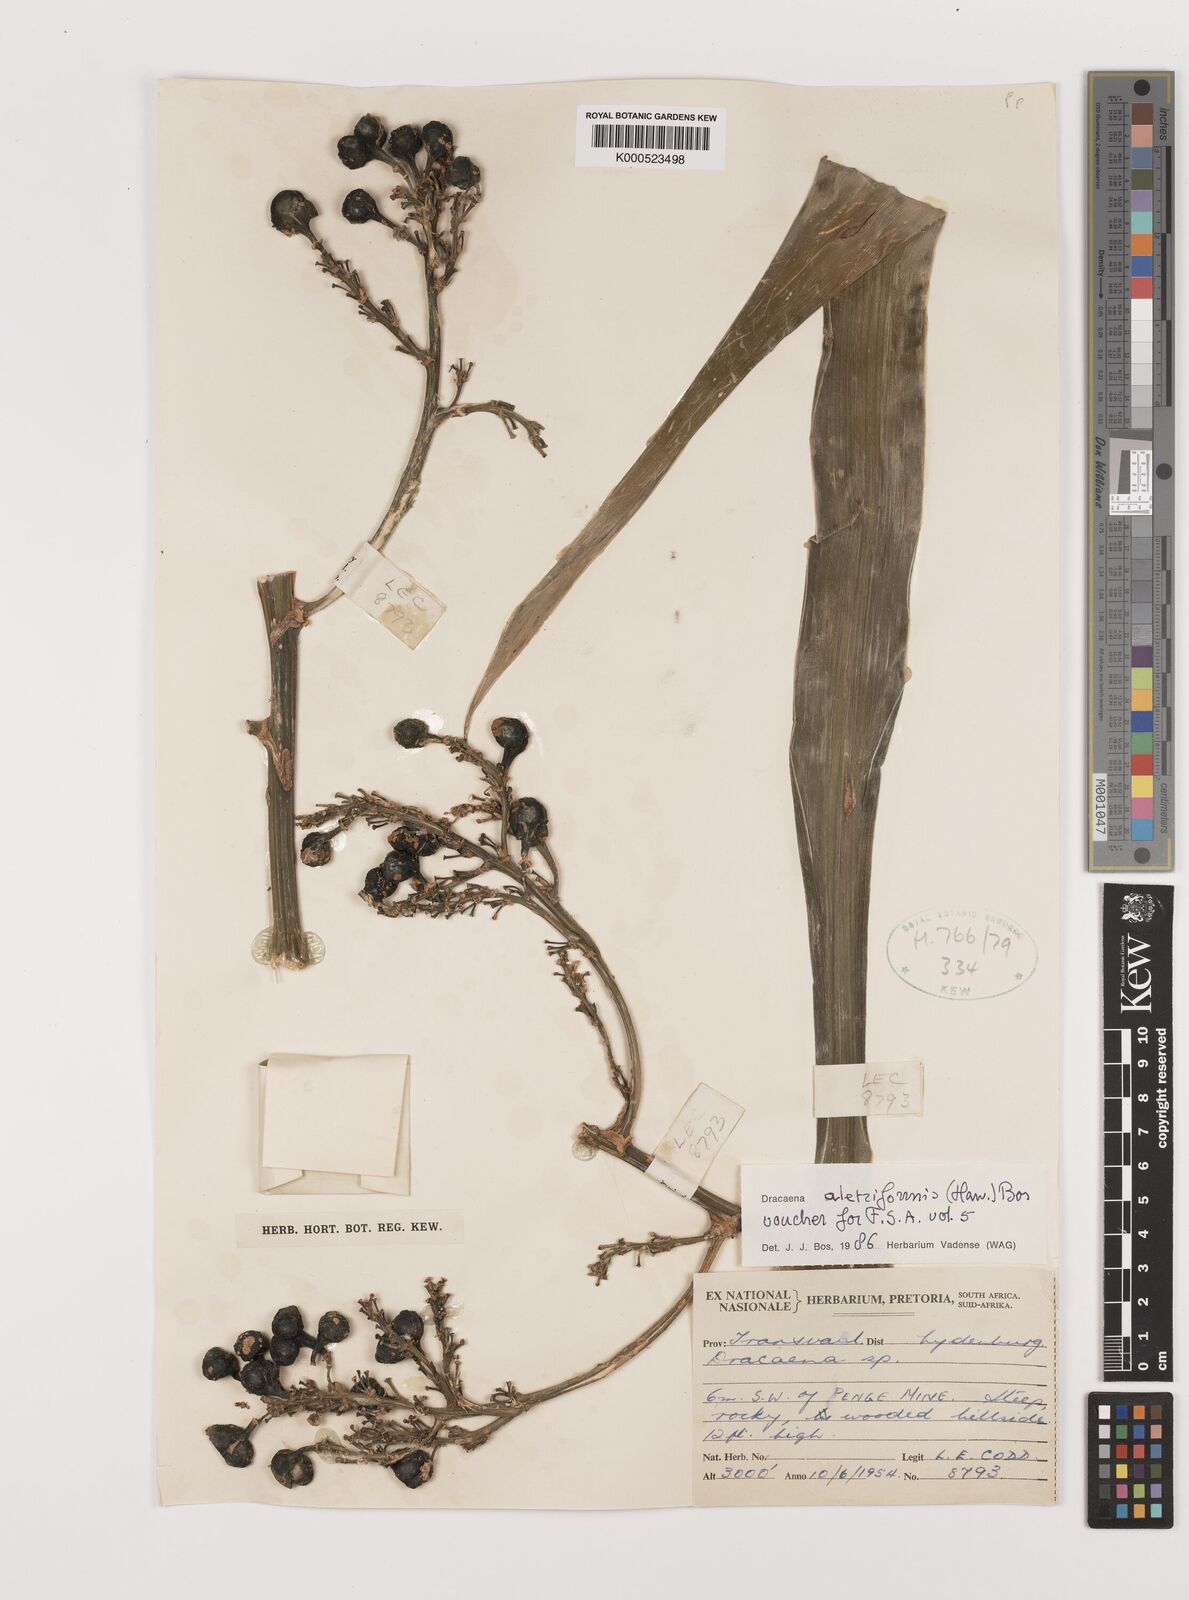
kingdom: Plantae
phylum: Tracheophyta
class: Liliopsida
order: Asparagales
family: Asparagaceae
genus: Dracaena
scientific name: Dracaena aletriformis
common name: Large-leaved dragon tree
